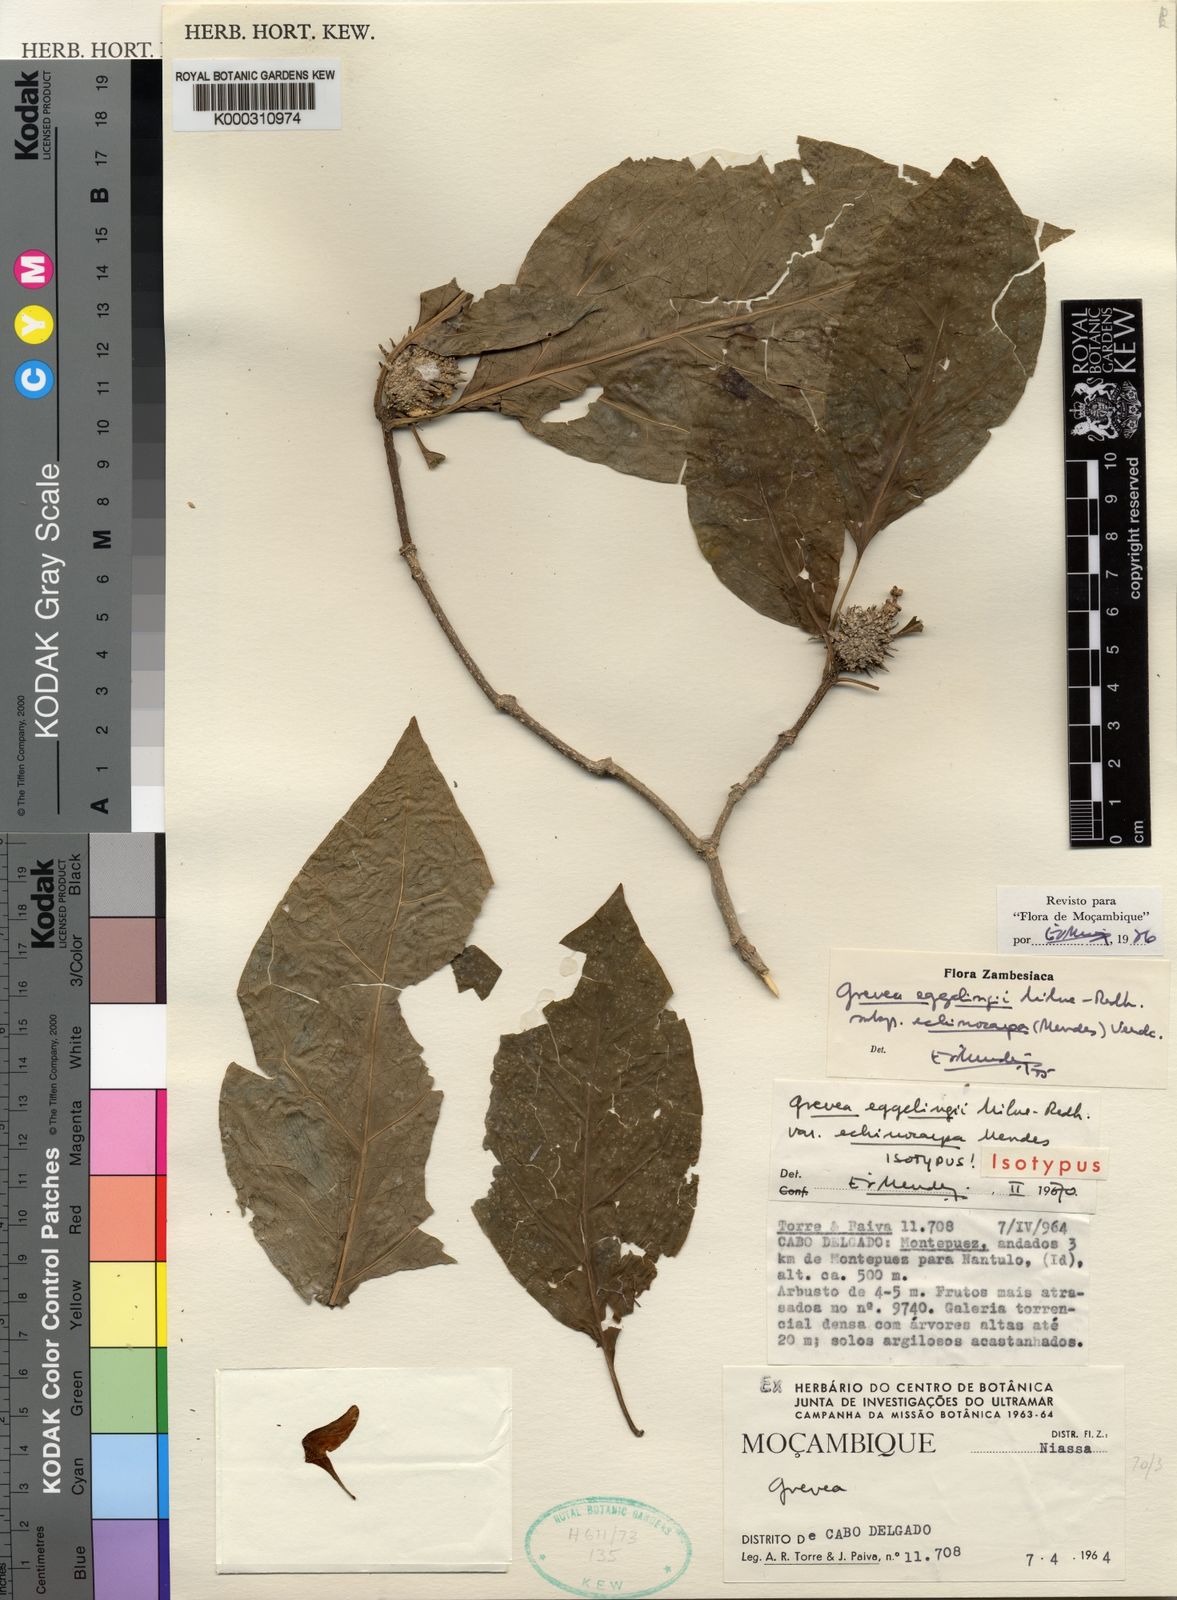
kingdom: Plantae
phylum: Tracheophyta
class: Magnoliopsida
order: Solanales
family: Montiniaceae
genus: Grevea
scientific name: Grevea eggelingii
